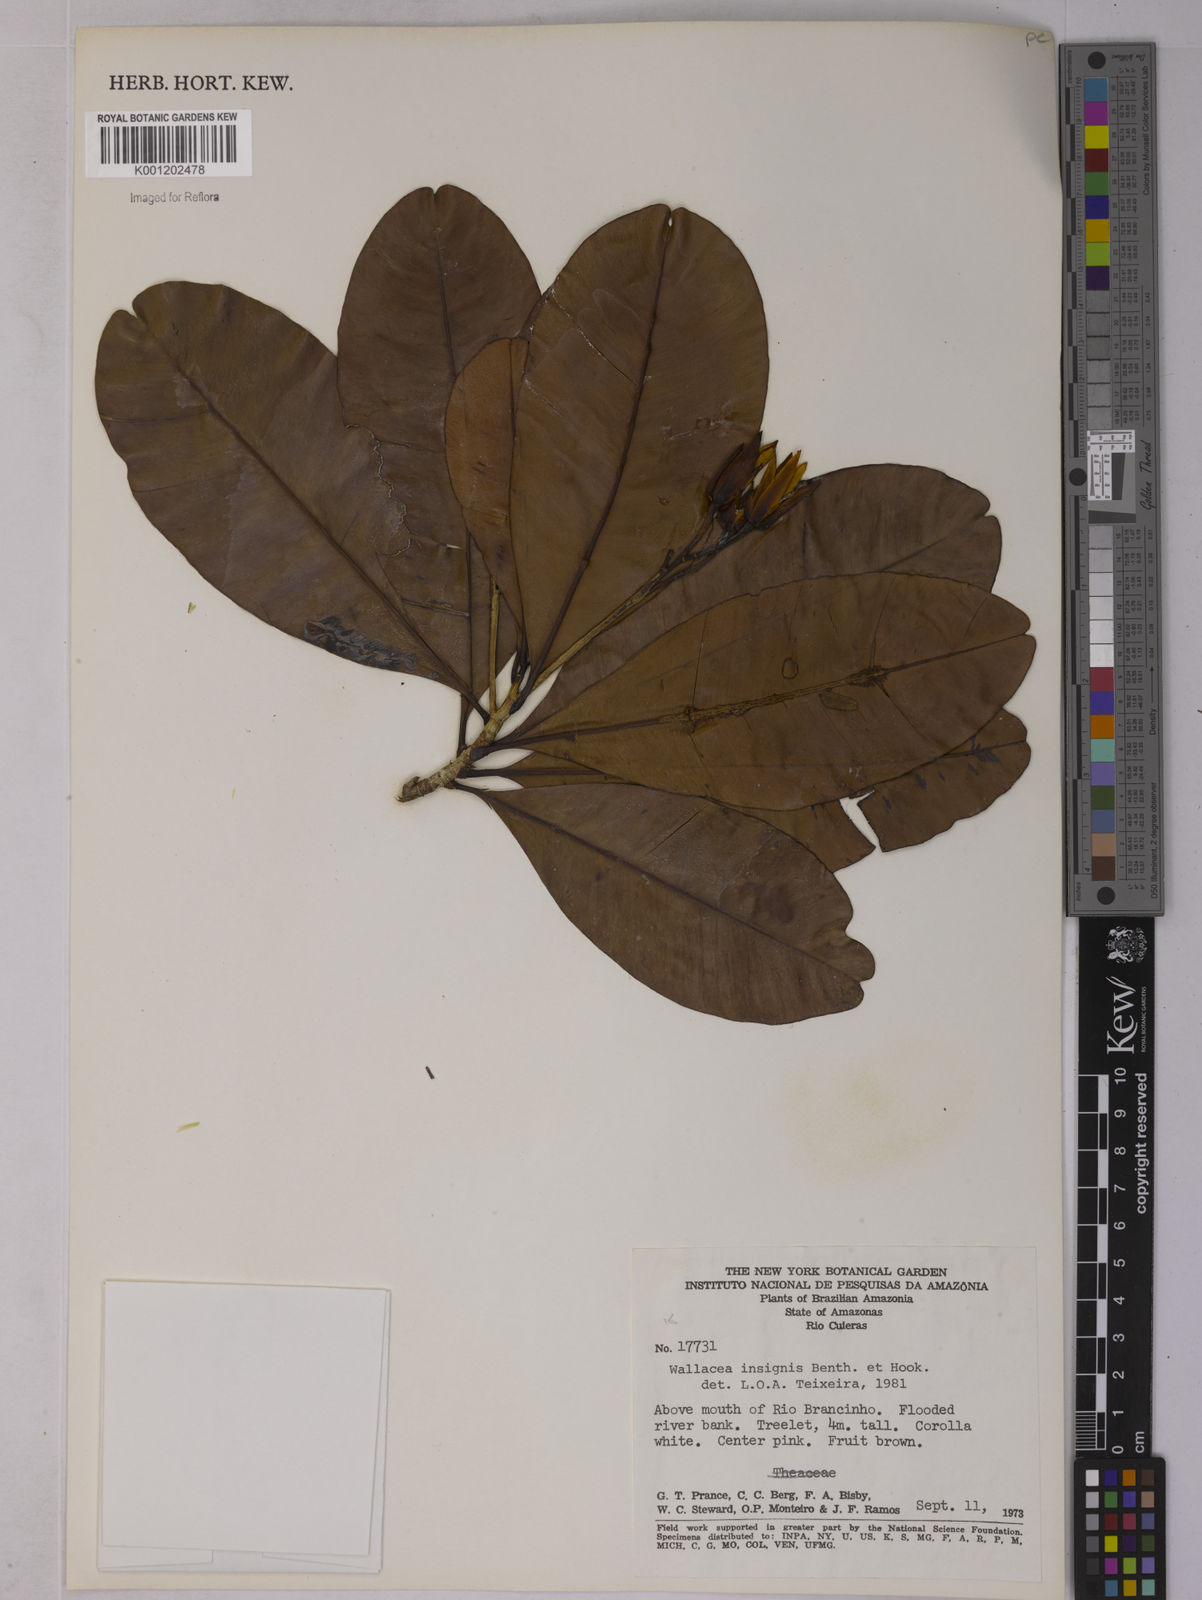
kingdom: Plantae
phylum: Tracheophyta
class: Magnoliopsida
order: Malpighiales
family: Ochnaceae
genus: Wallacea
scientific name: Wallacea insignis
